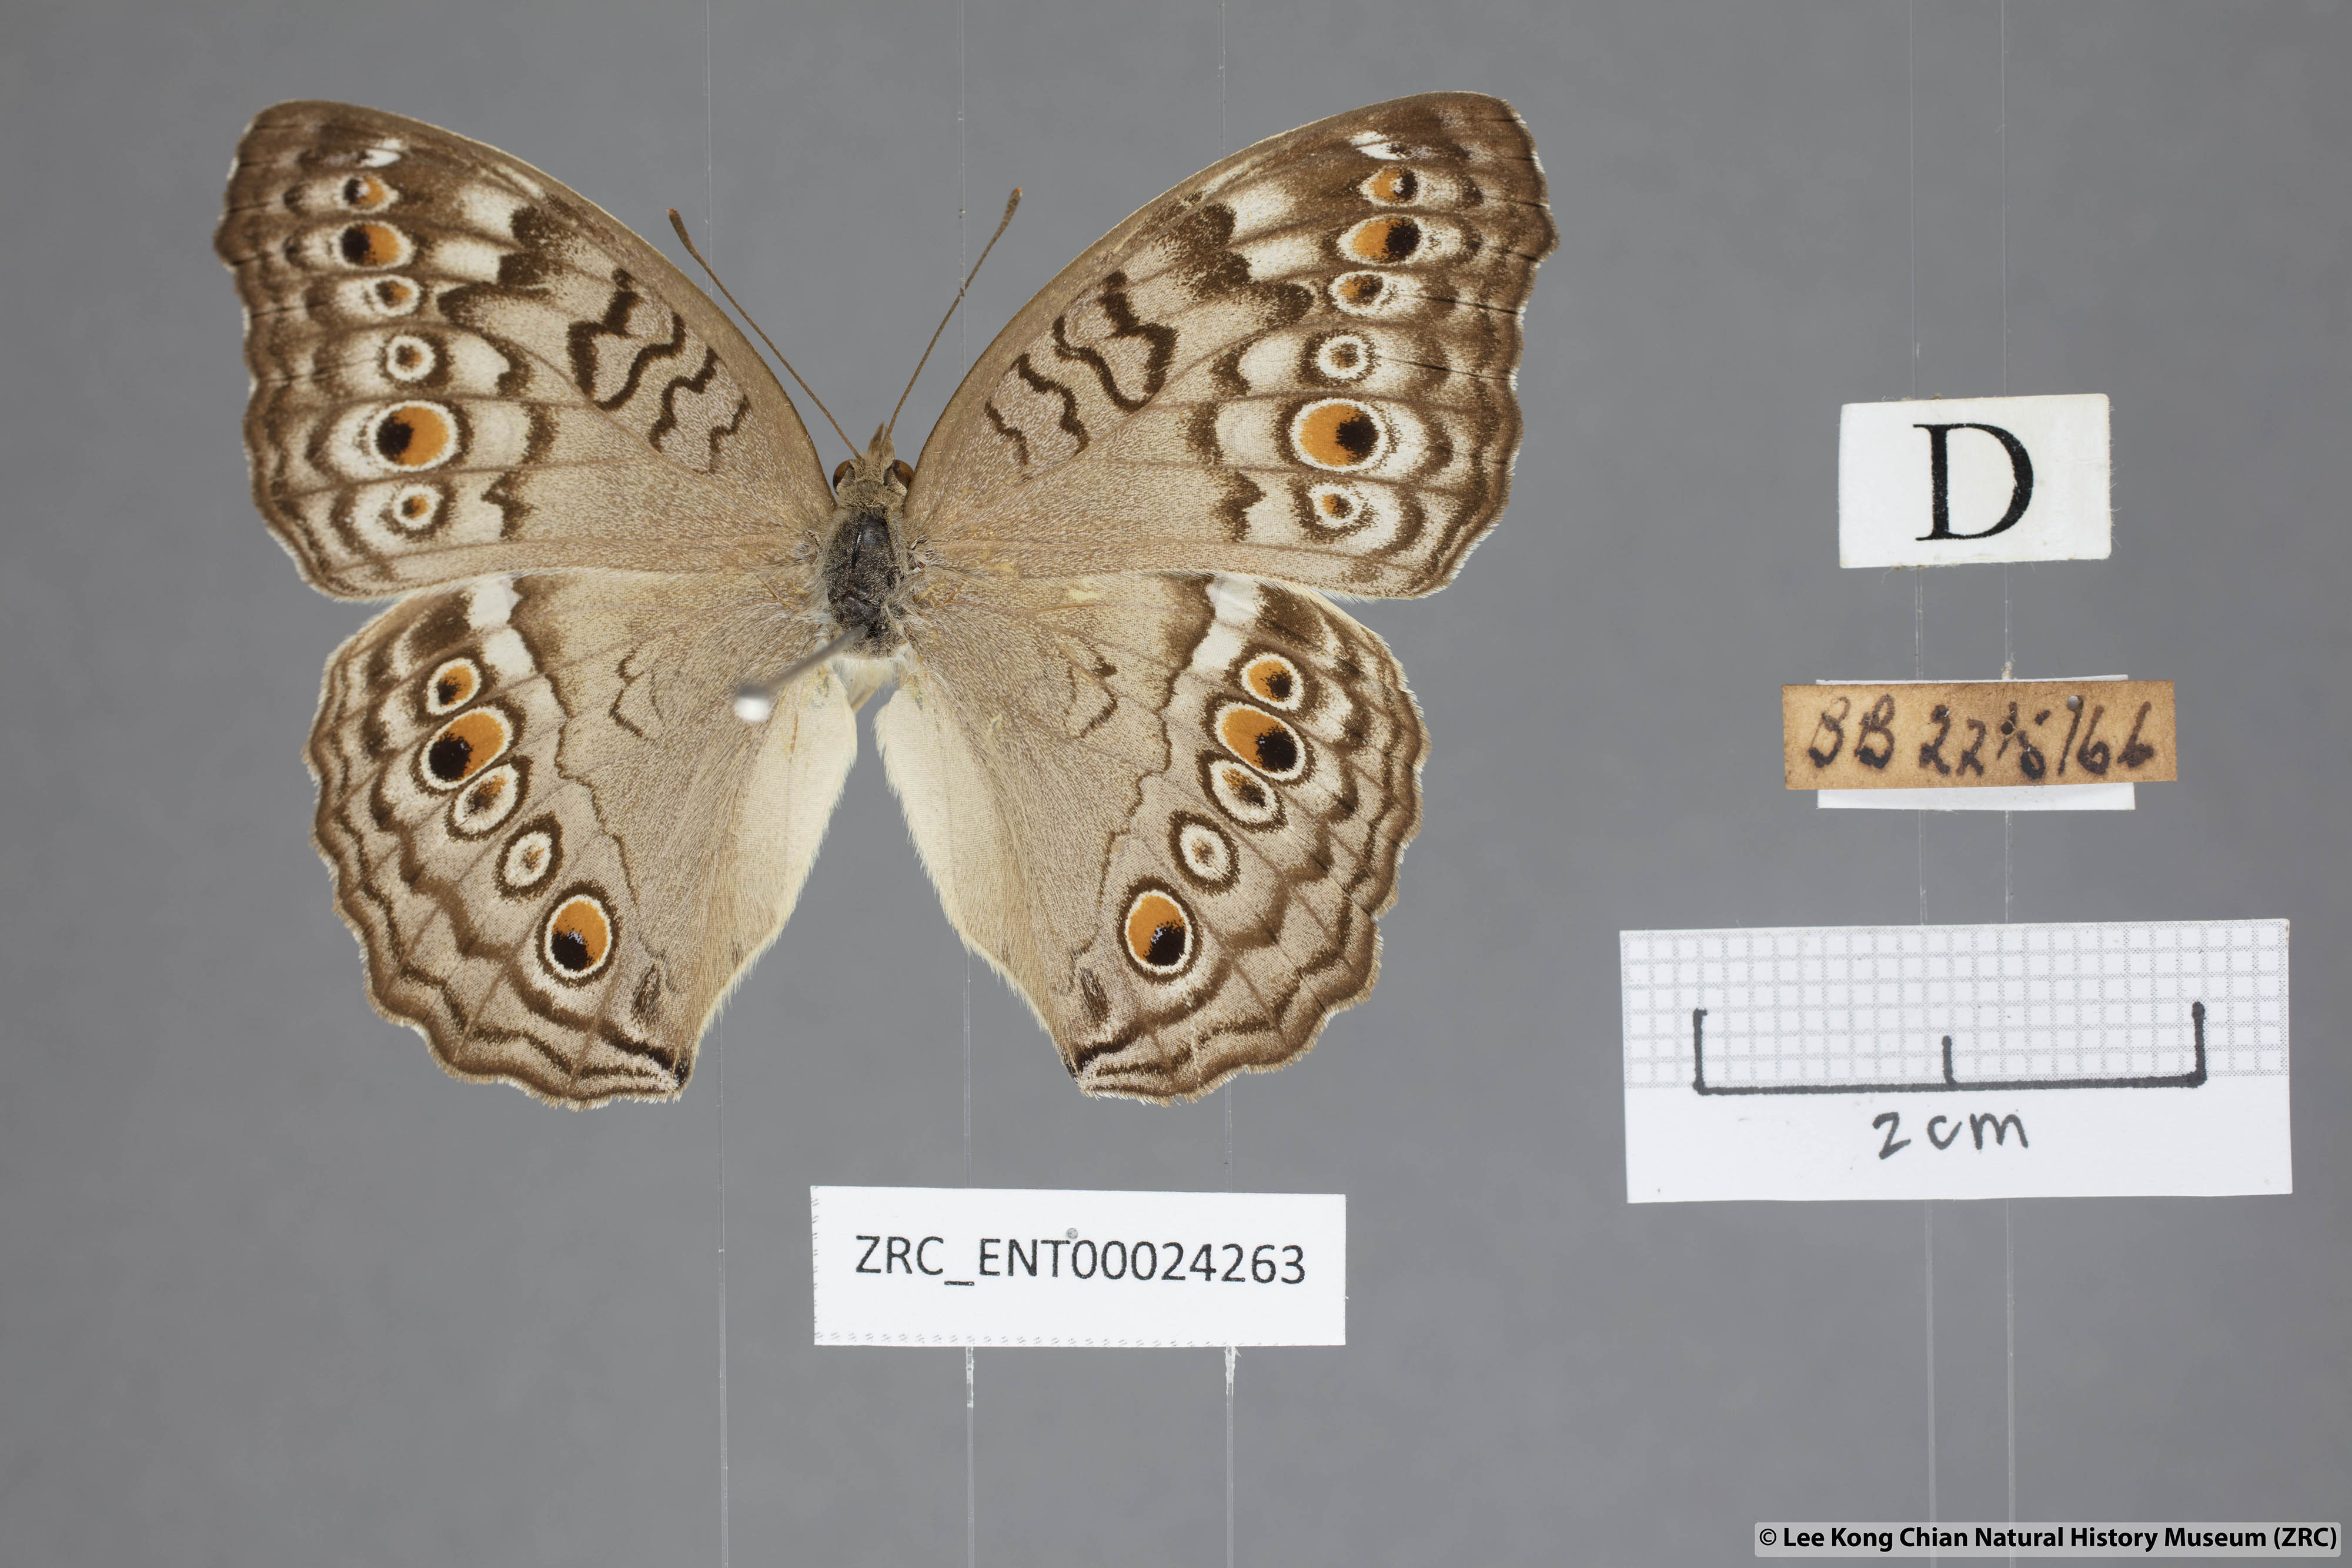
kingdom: Animalia
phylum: Arthropoda
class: Insecta
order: Lepidoptera
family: Nymphalidae
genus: Junonia
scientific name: Junonia atlites
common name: Grey pansy
